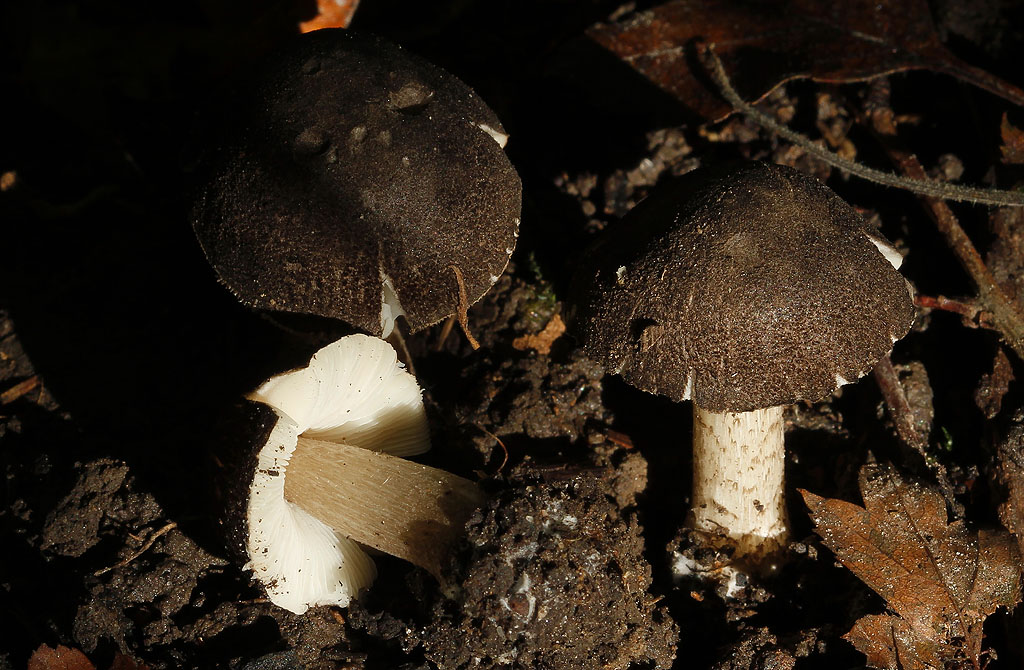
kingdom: Fungi
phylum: Basidiomycota
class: Agaricomycetes
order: Agaricales
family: Pluteaceae
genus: Pluteus
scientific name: Pluteus
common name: gråfibret skærmhat
